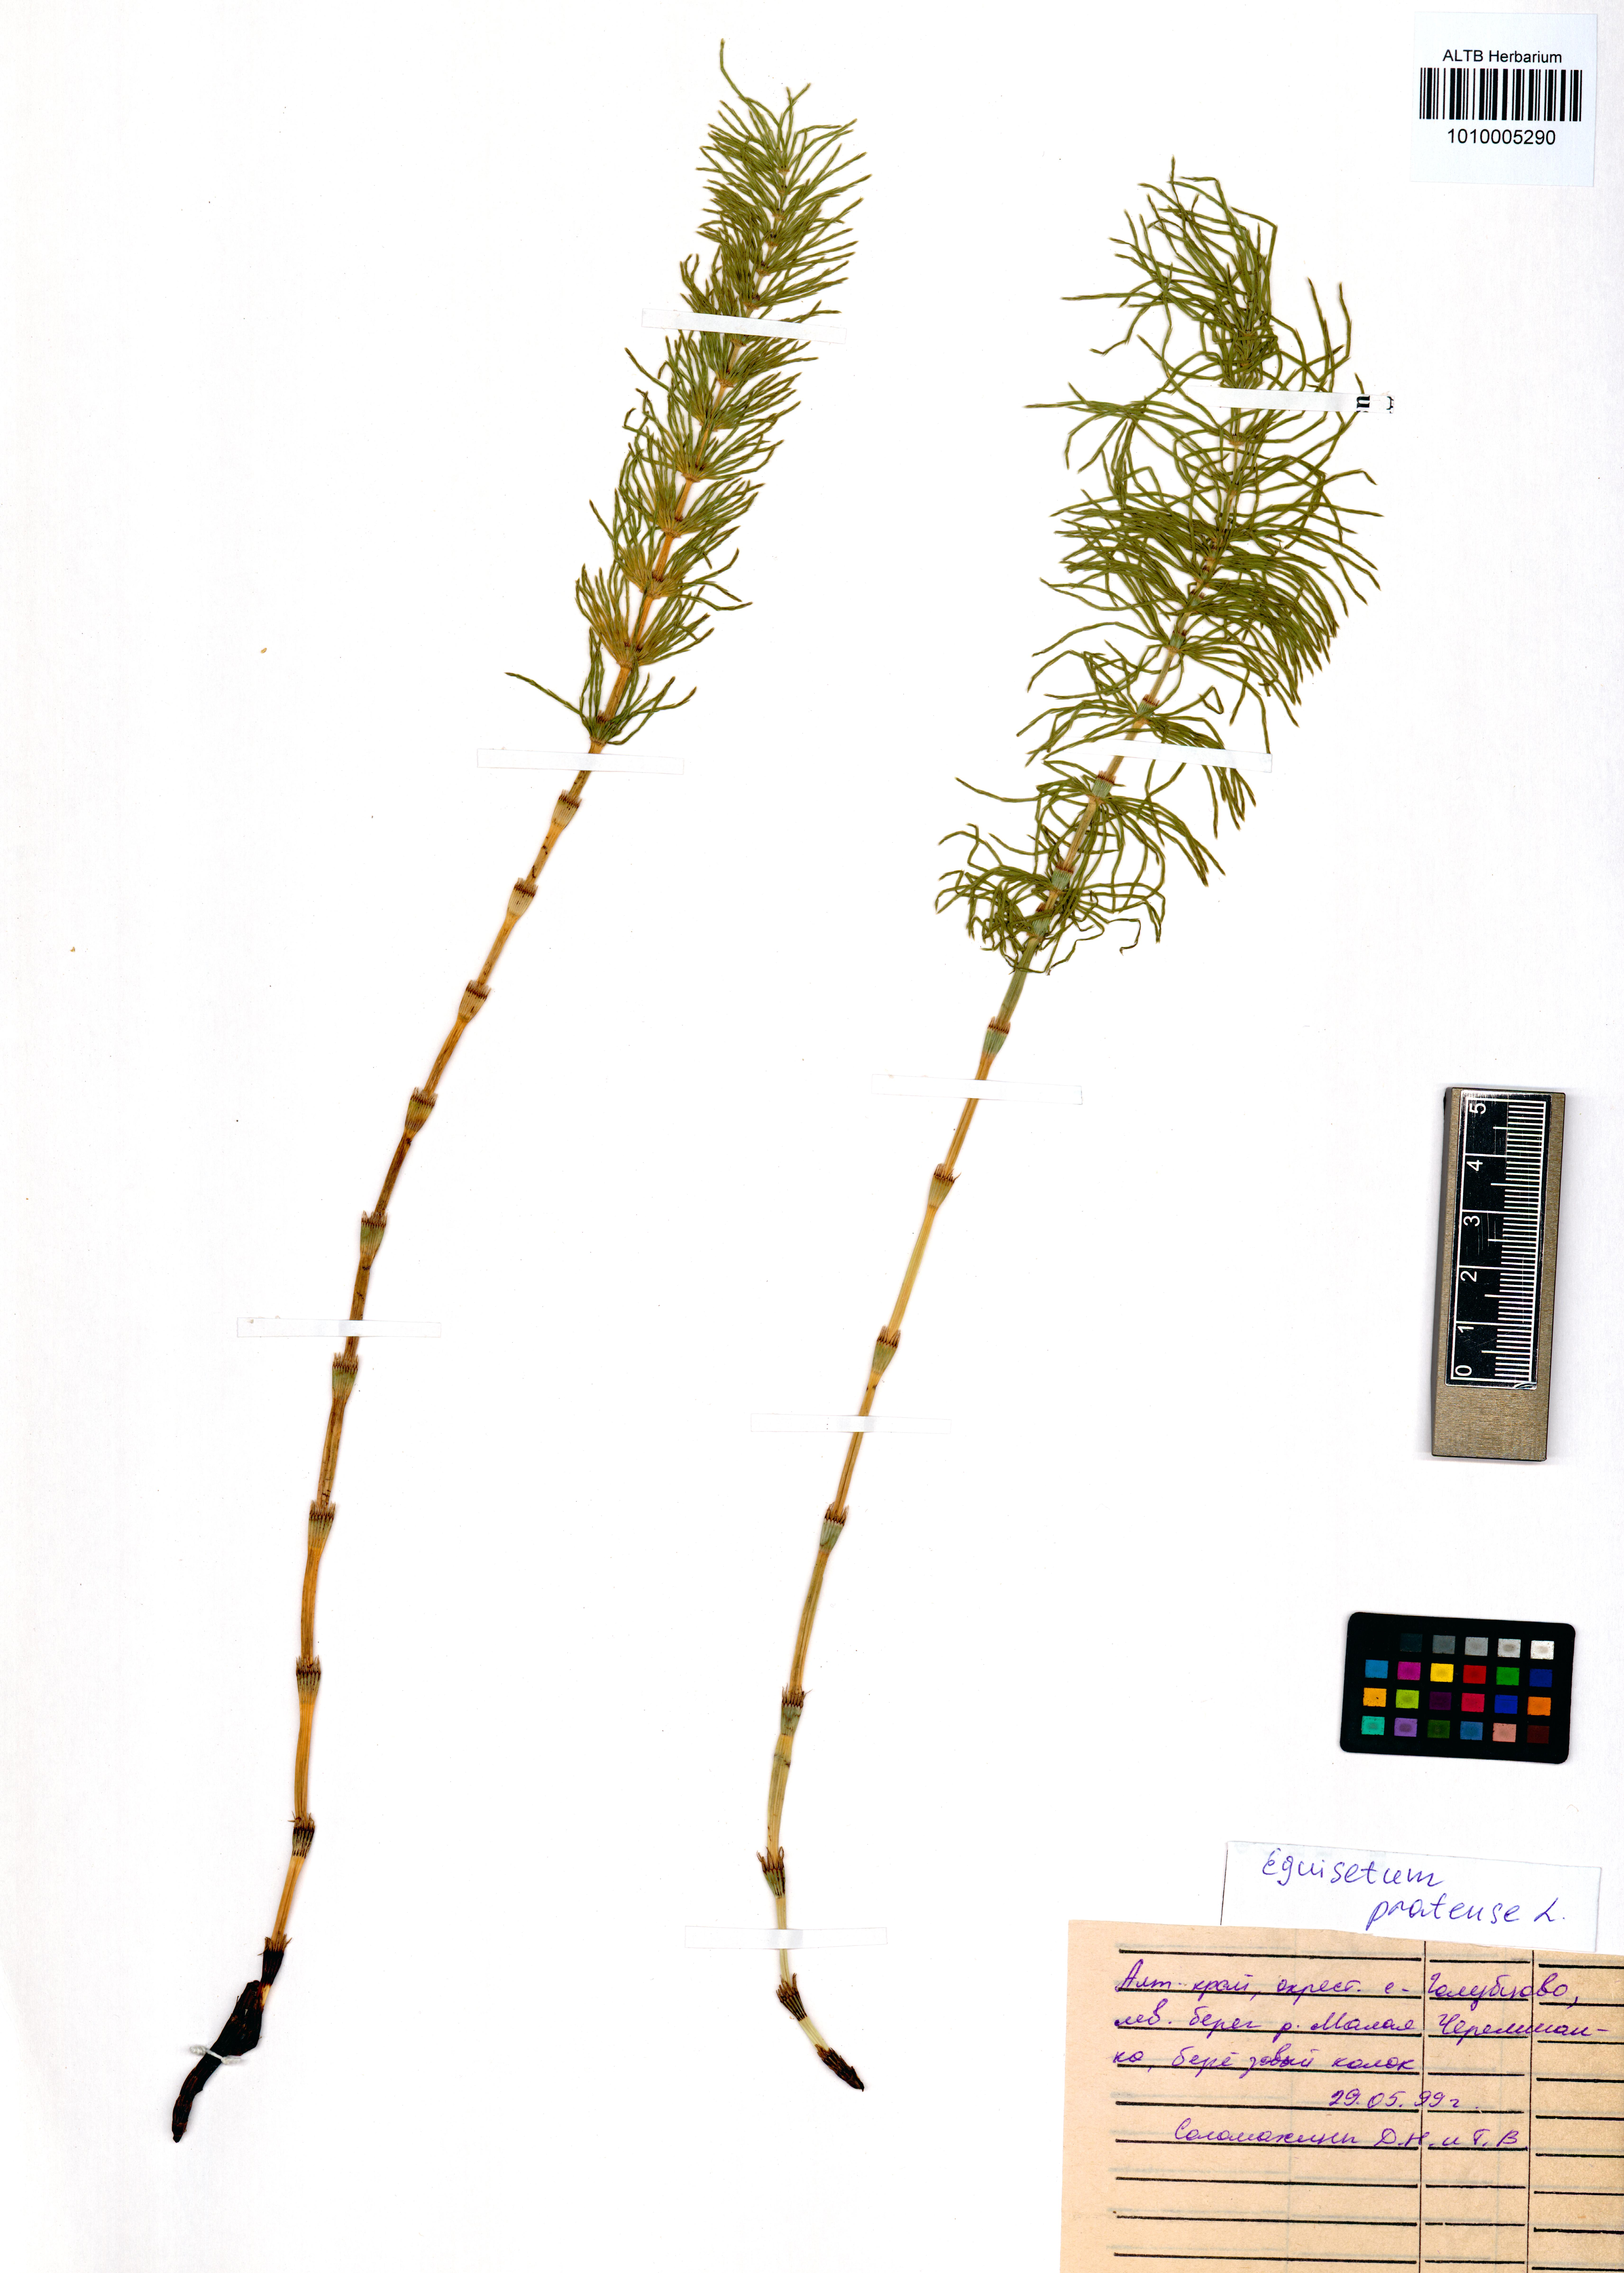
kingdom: Plantae
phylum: Tracheophyta
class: Polypodiopsida
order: Equisetales
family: Equisetaceae
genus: Equisetum
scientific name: Equisetum pratense
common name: Meadow horsetail
